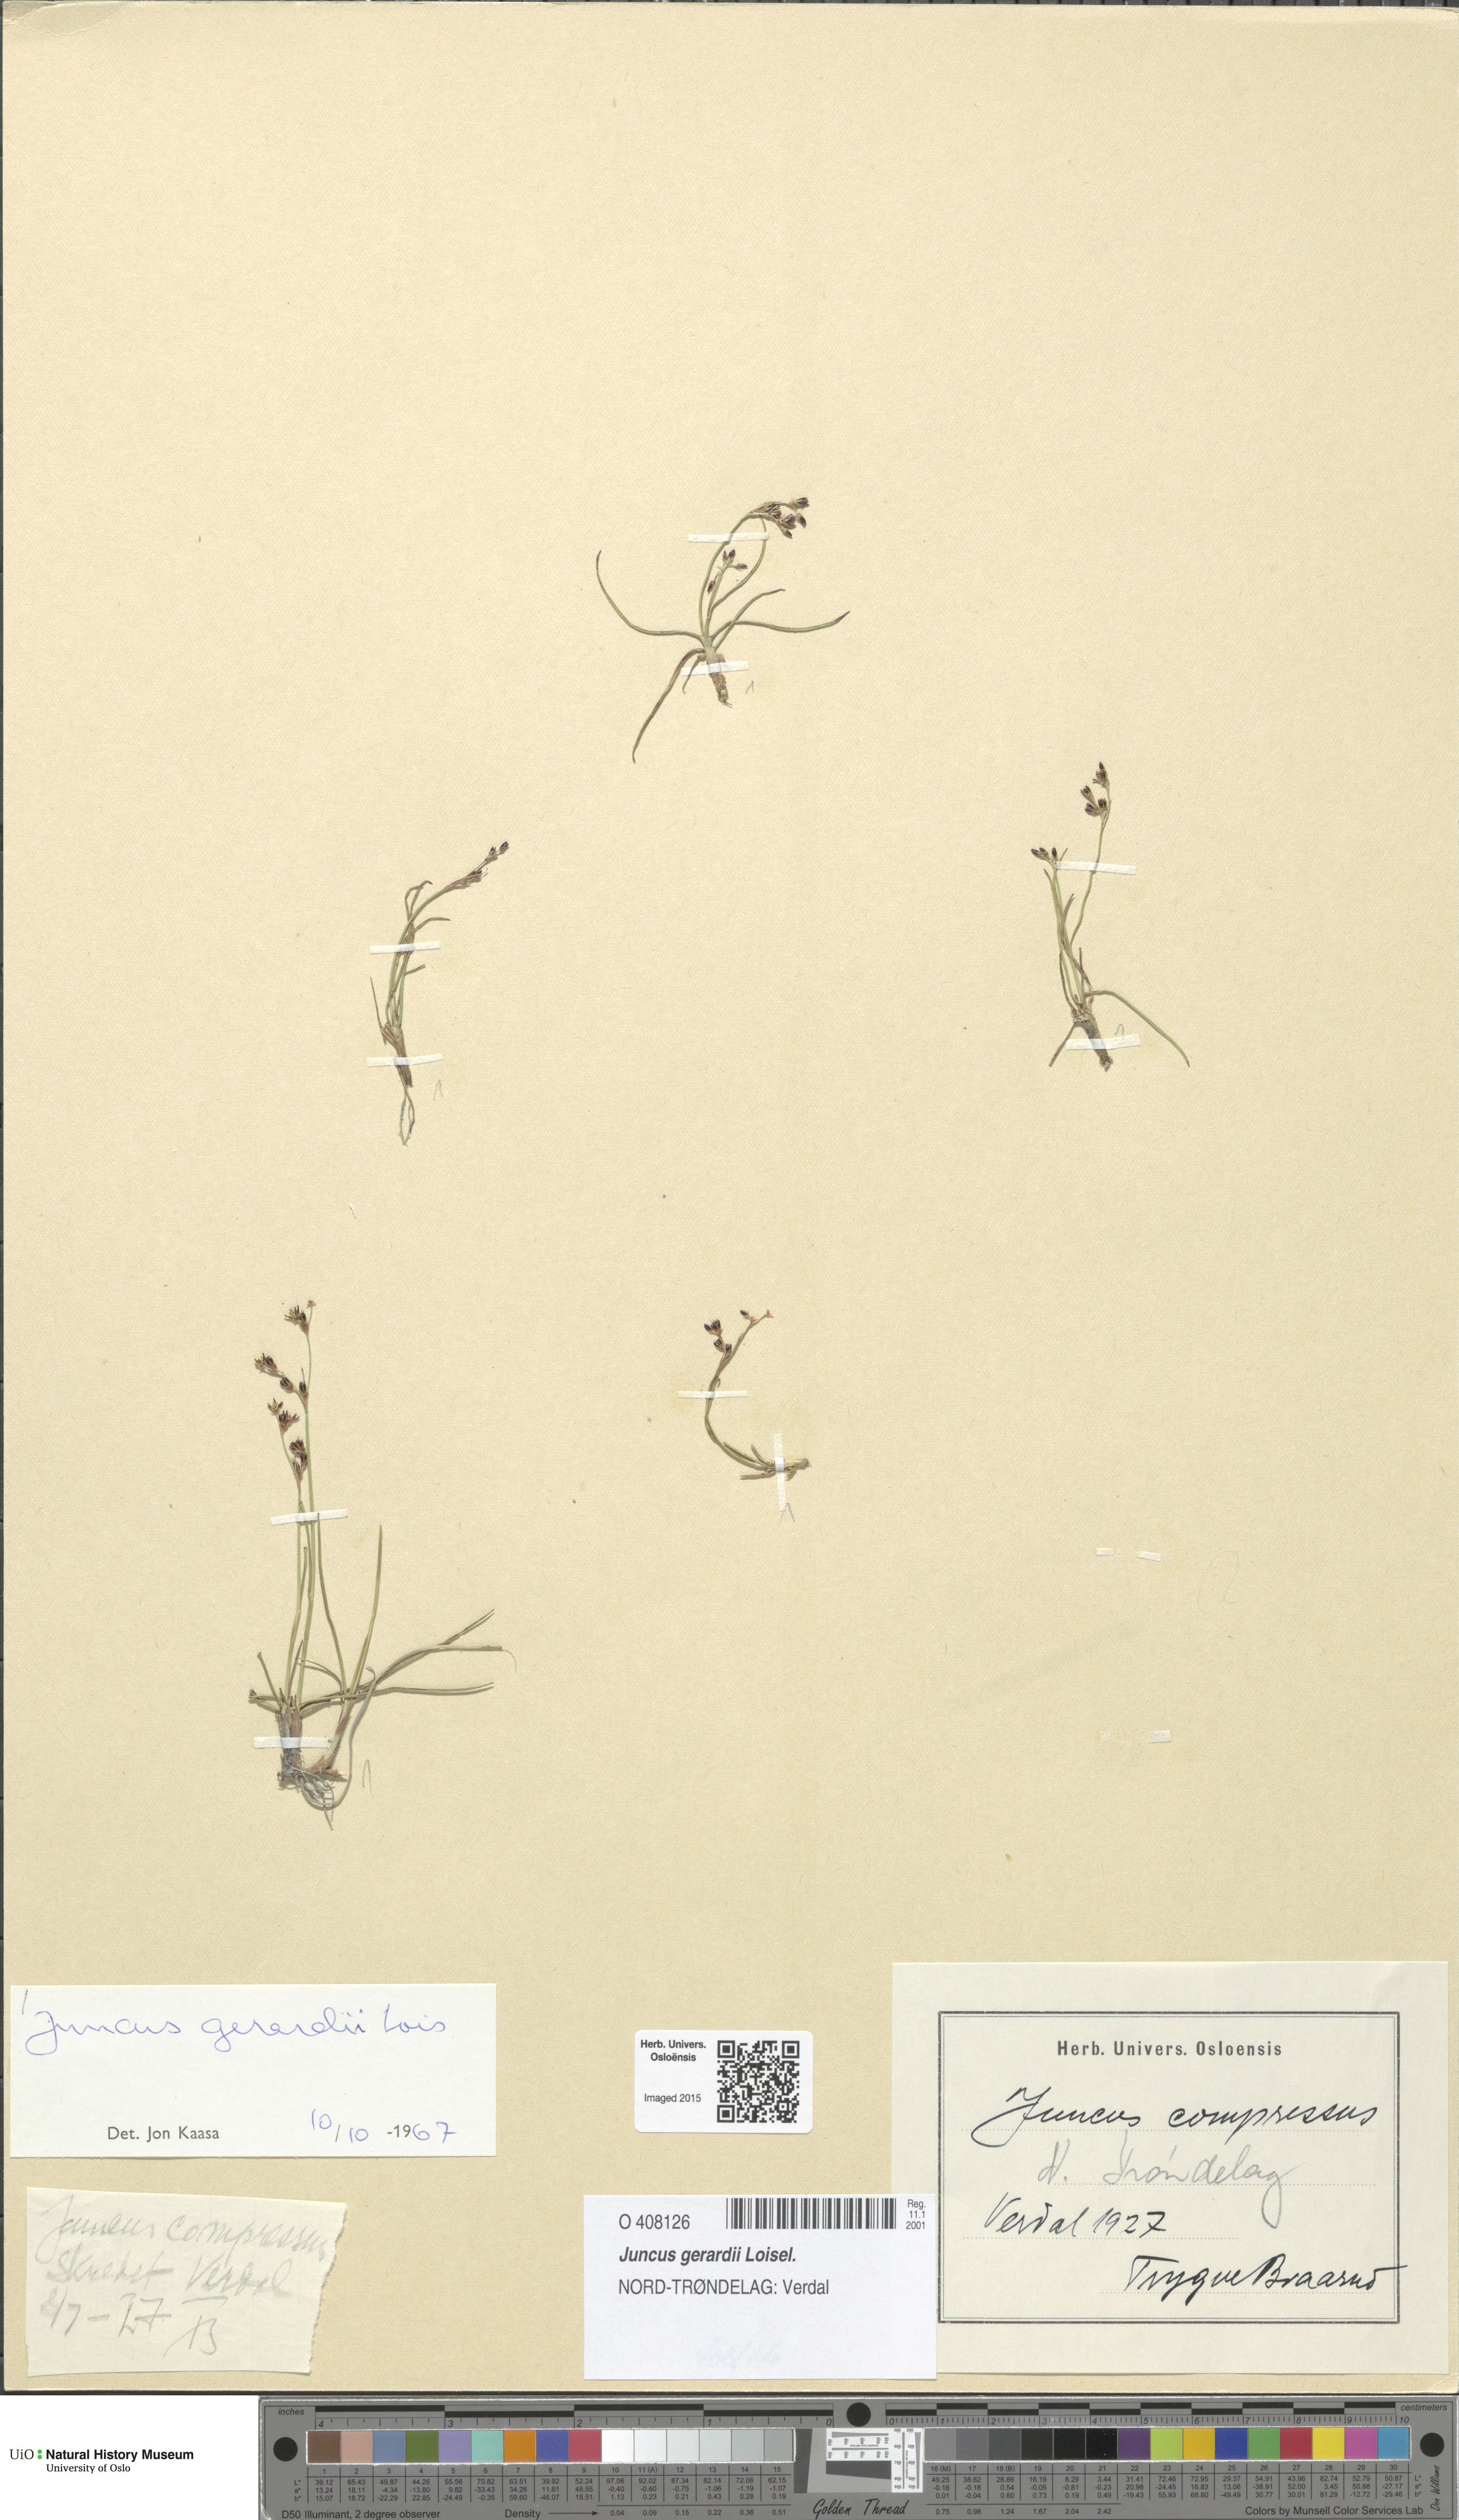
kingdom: Plantae
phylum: Tracheophyta
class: Liliopsida
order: Poales
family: Juncaceae
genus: Juncus
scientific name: Juncus gerardi
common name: Saltmarsh rush
